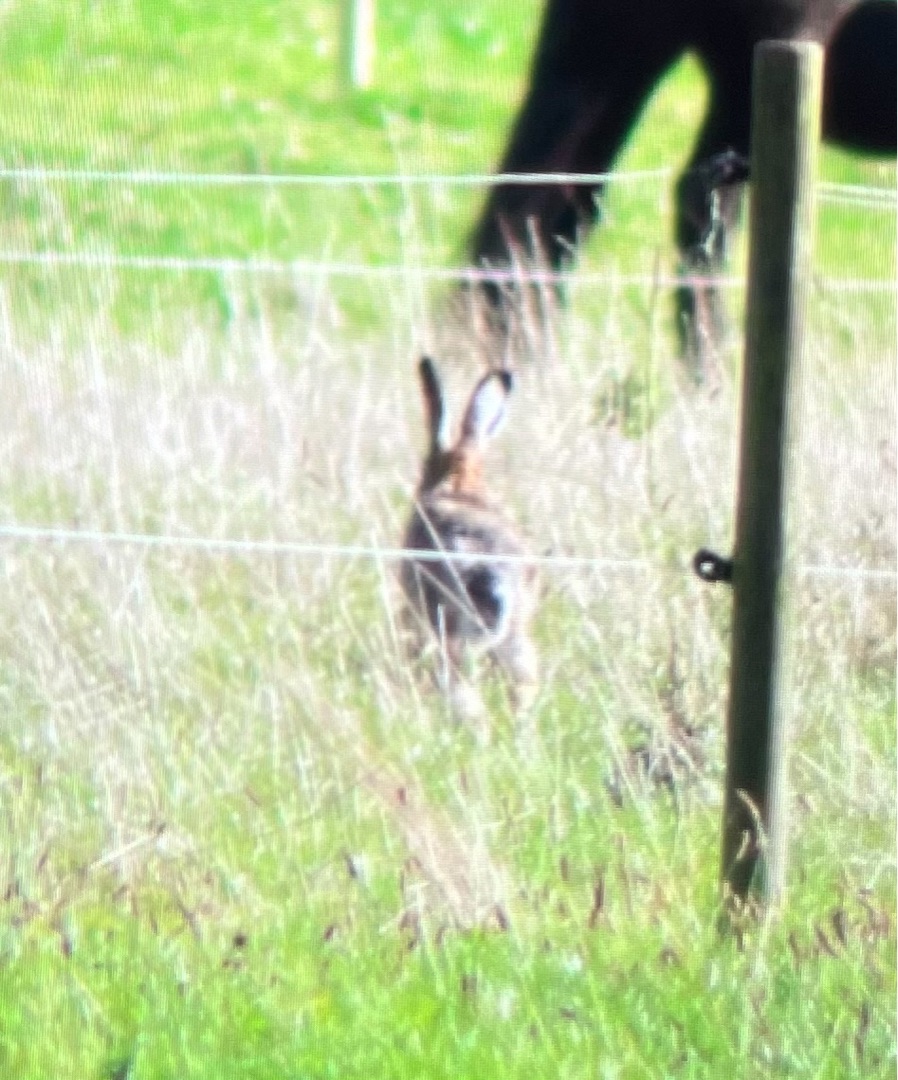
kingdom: Animalia
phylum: Chordata
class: Mammalia
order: Lagomorpha
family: Leporidae
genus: Lepus
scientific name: Lepus europaeus
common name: Hare
